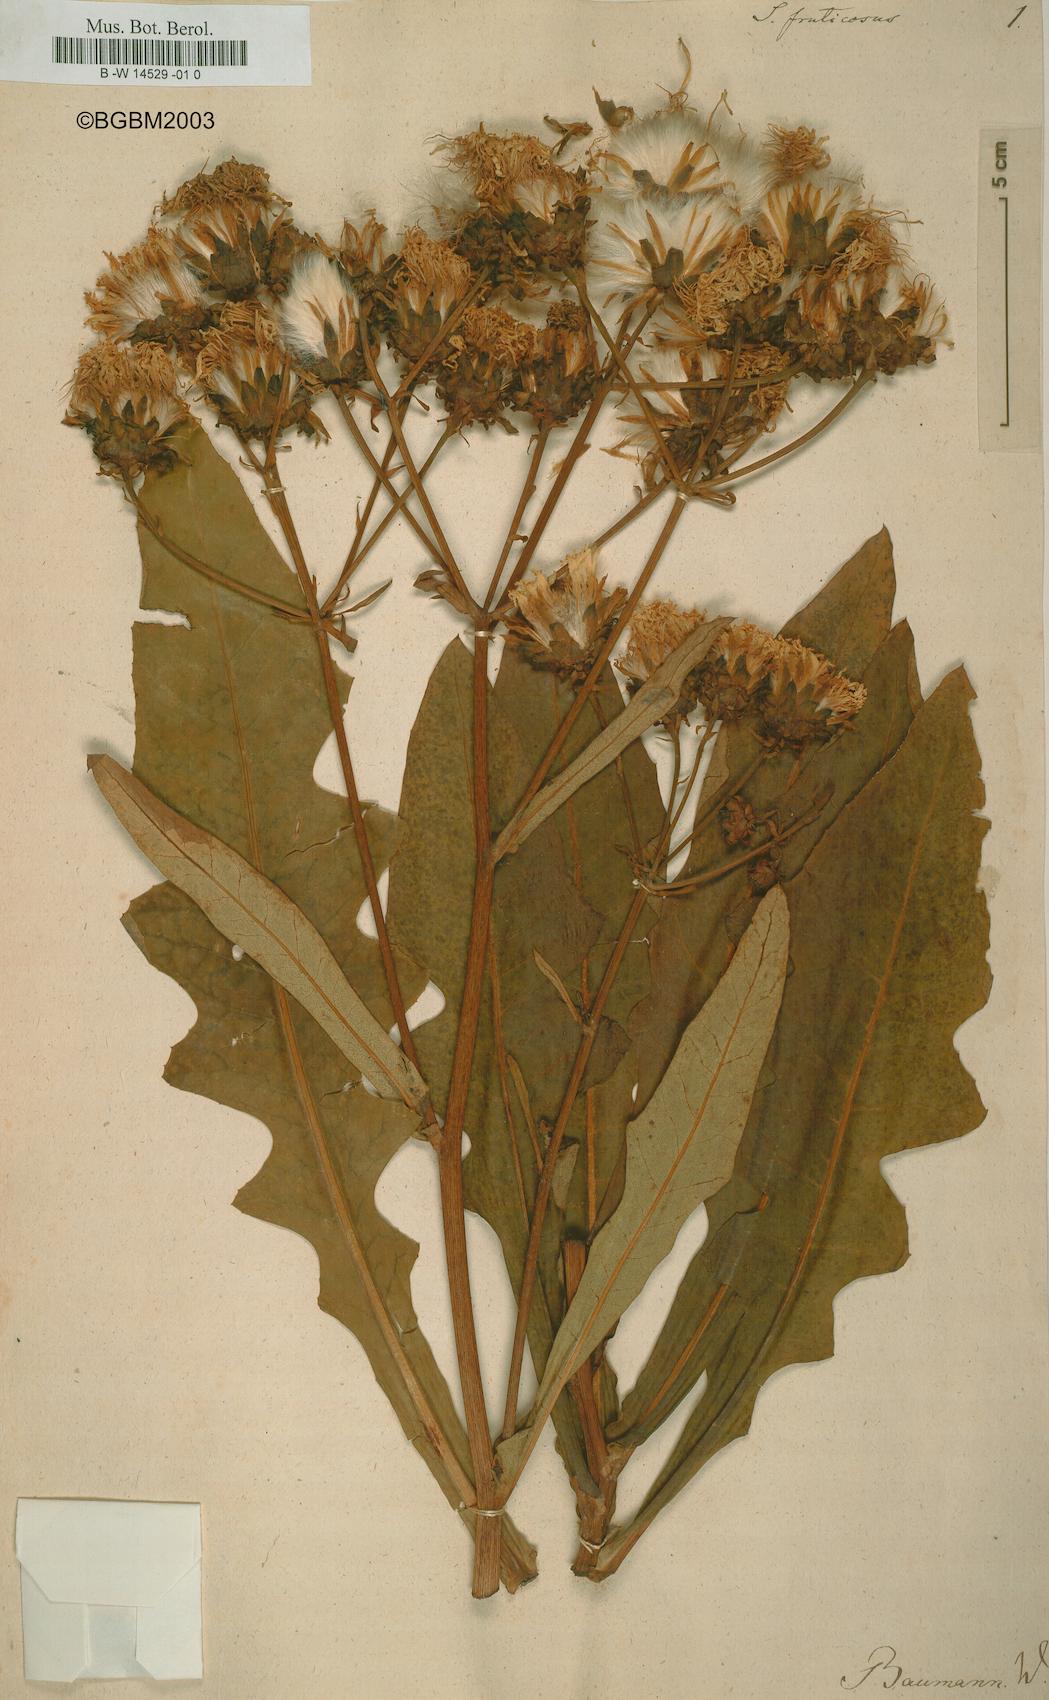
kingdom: Plantae
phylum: Tracheophyta
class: Magnoliopsida
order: Asterales
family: Asteraceae
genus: Sonchus
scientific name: Sonchus fruticosus
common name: Shrubby sow-thistle
